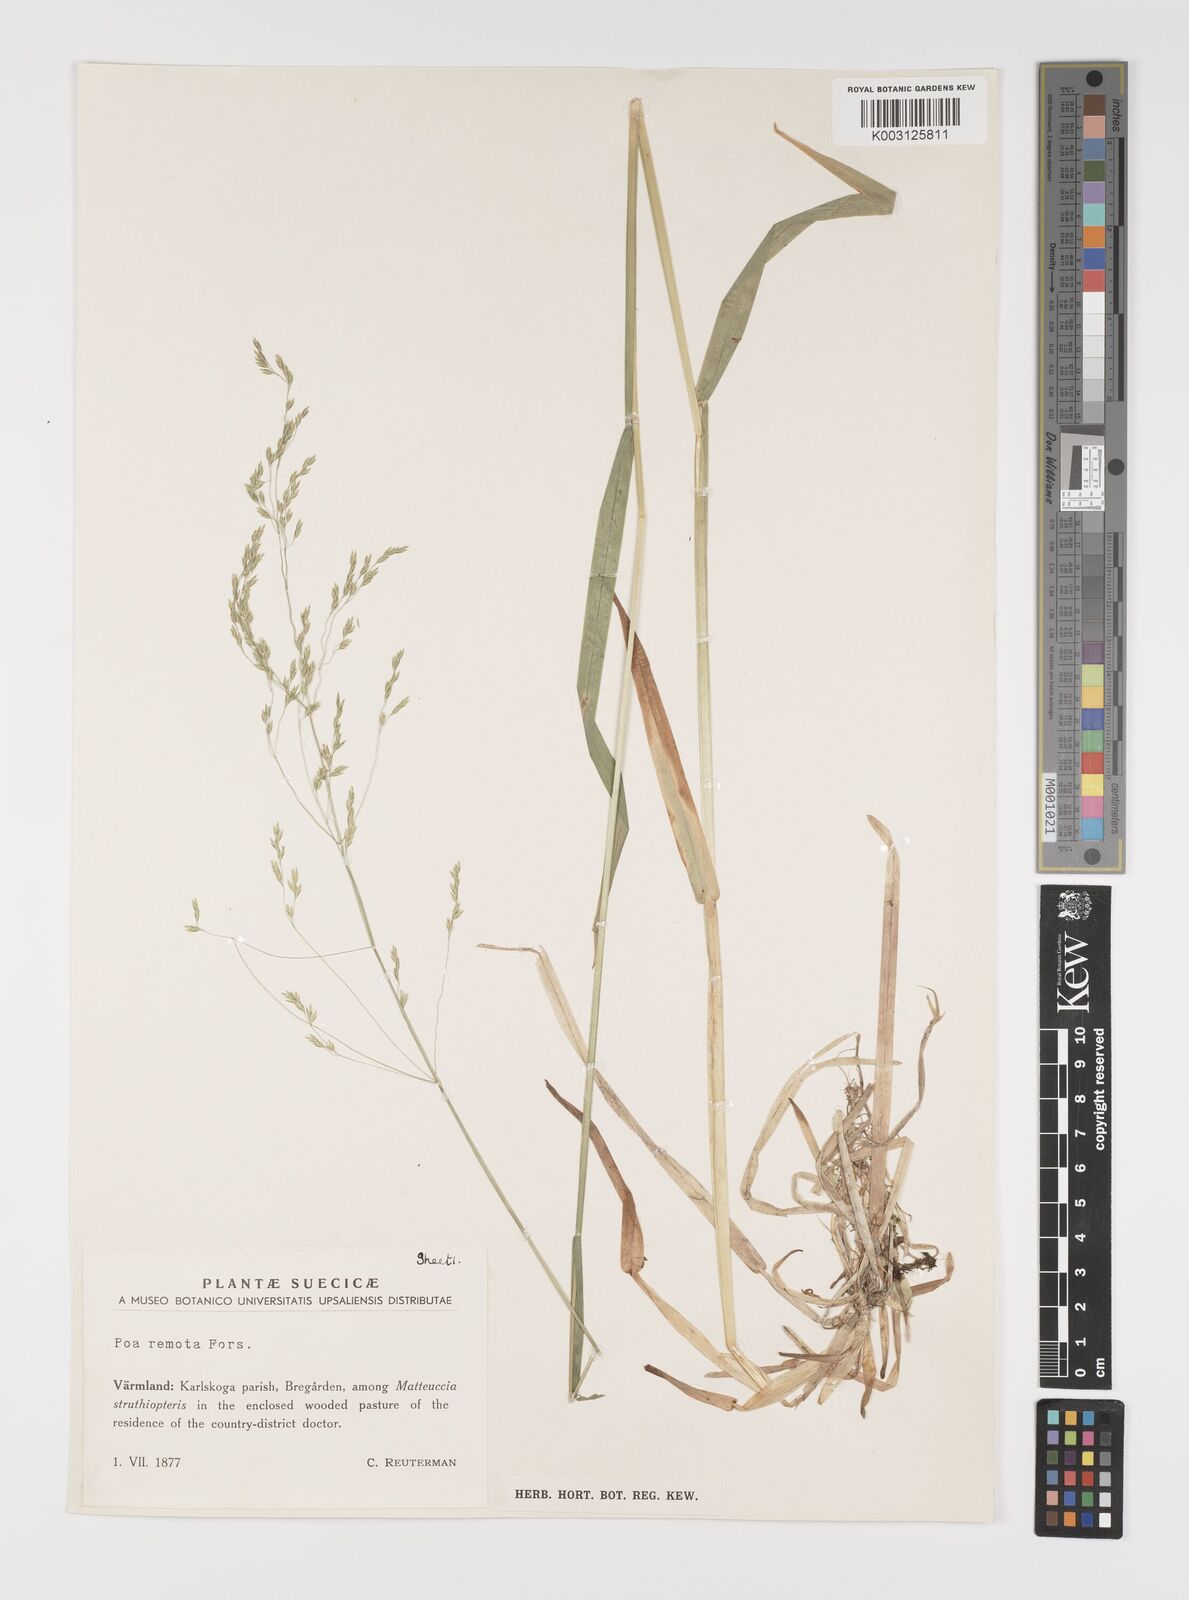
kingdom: Plantae
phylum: Tracheophyta
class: Liliopsida
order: Poales
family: Poaceae
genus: Poa
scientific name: Poa remota
